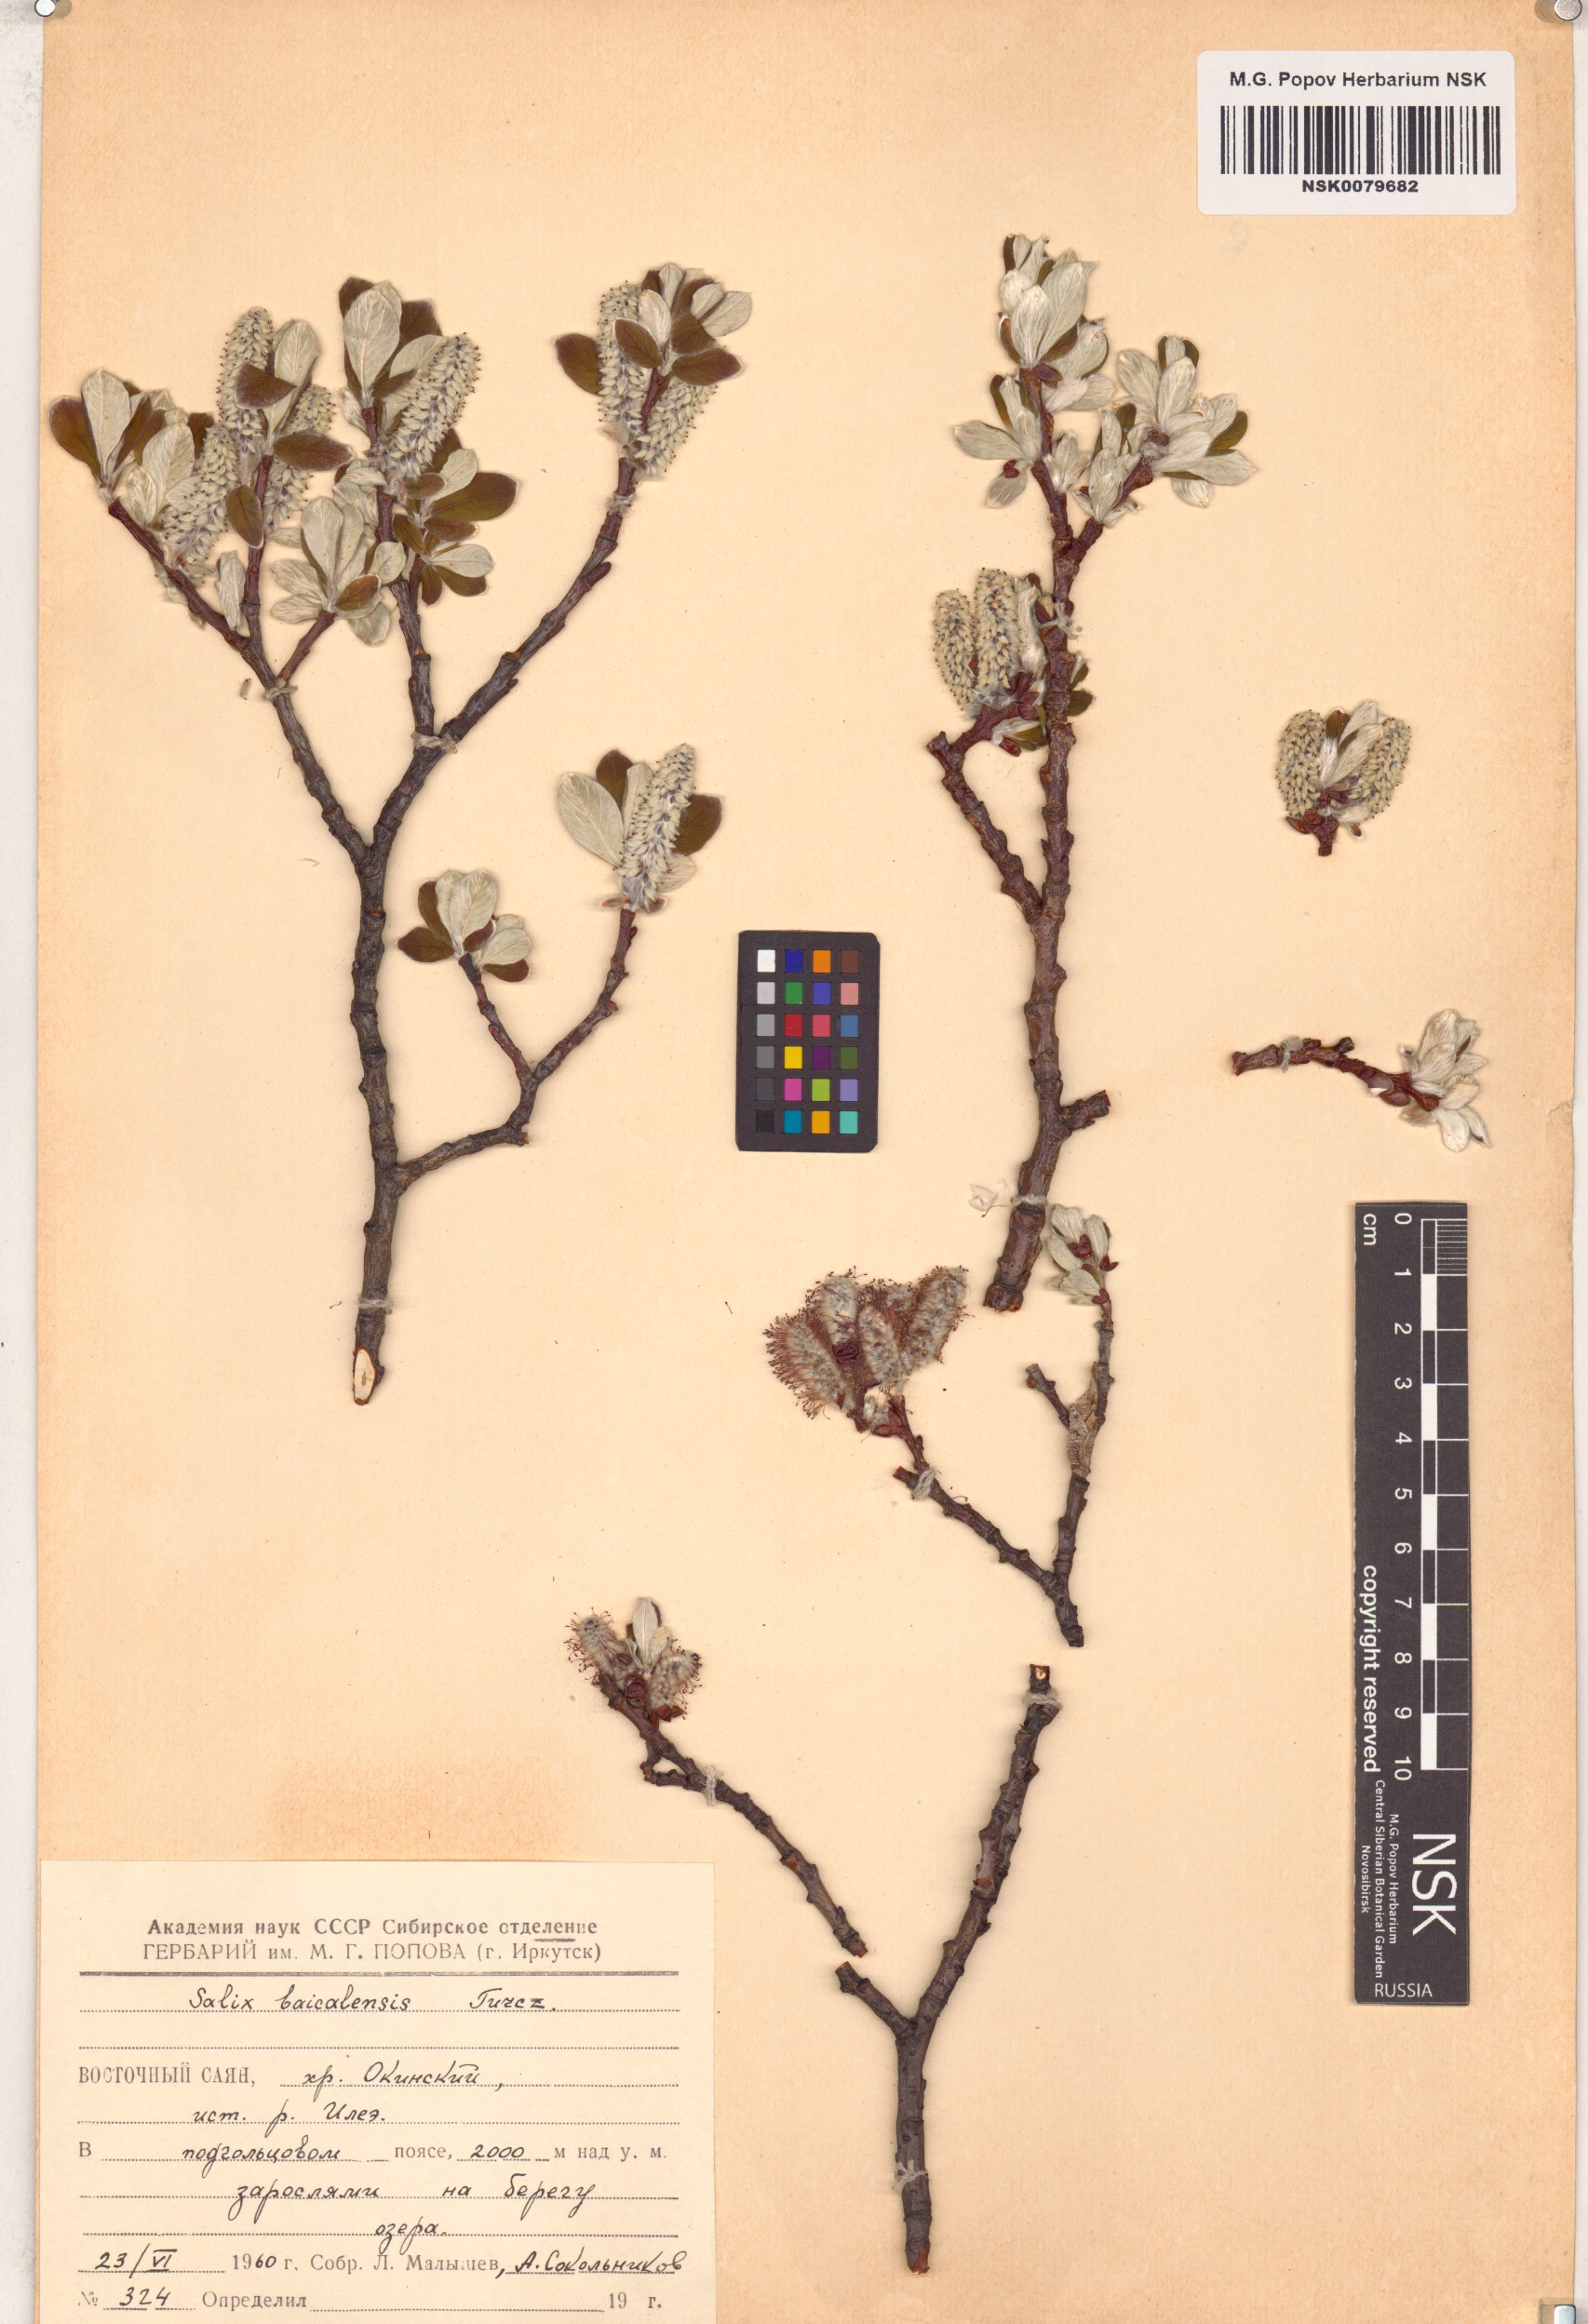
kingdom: Plantae
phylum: Tracheophyta
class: Magnoliopsida
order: Malpighiales
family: Salicaceae
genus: Salix
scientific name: Salix krylovii
